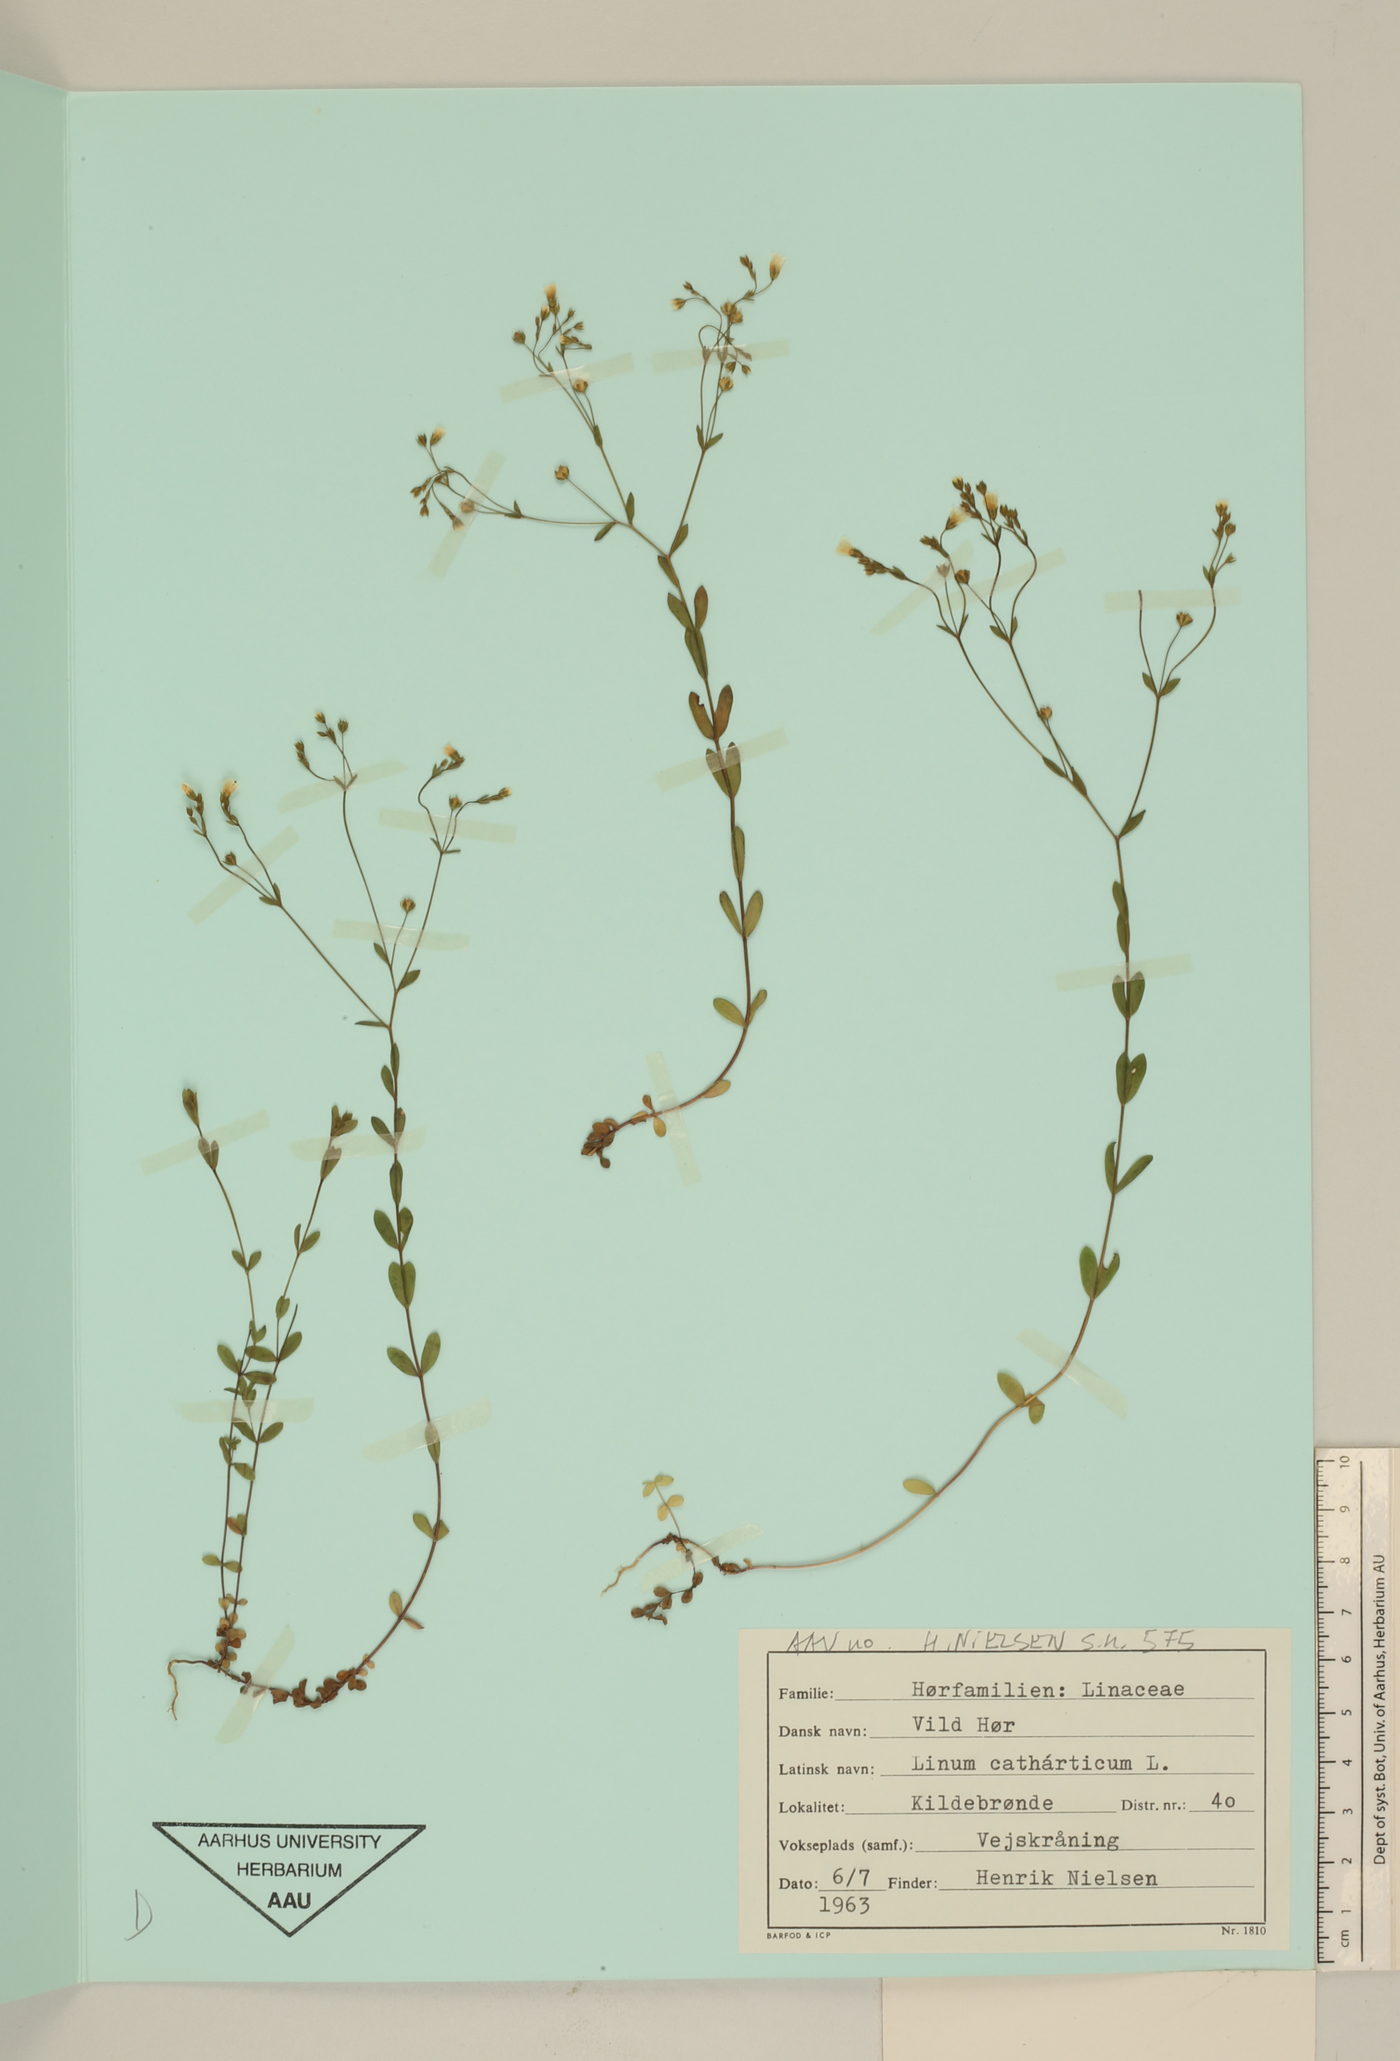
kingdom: Plantae
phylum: Tracheophyta
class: Magnoliopsida
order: Malpighiales
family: Linaceae
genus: Linum
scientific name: Linum catharticum
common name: Fairy flax
